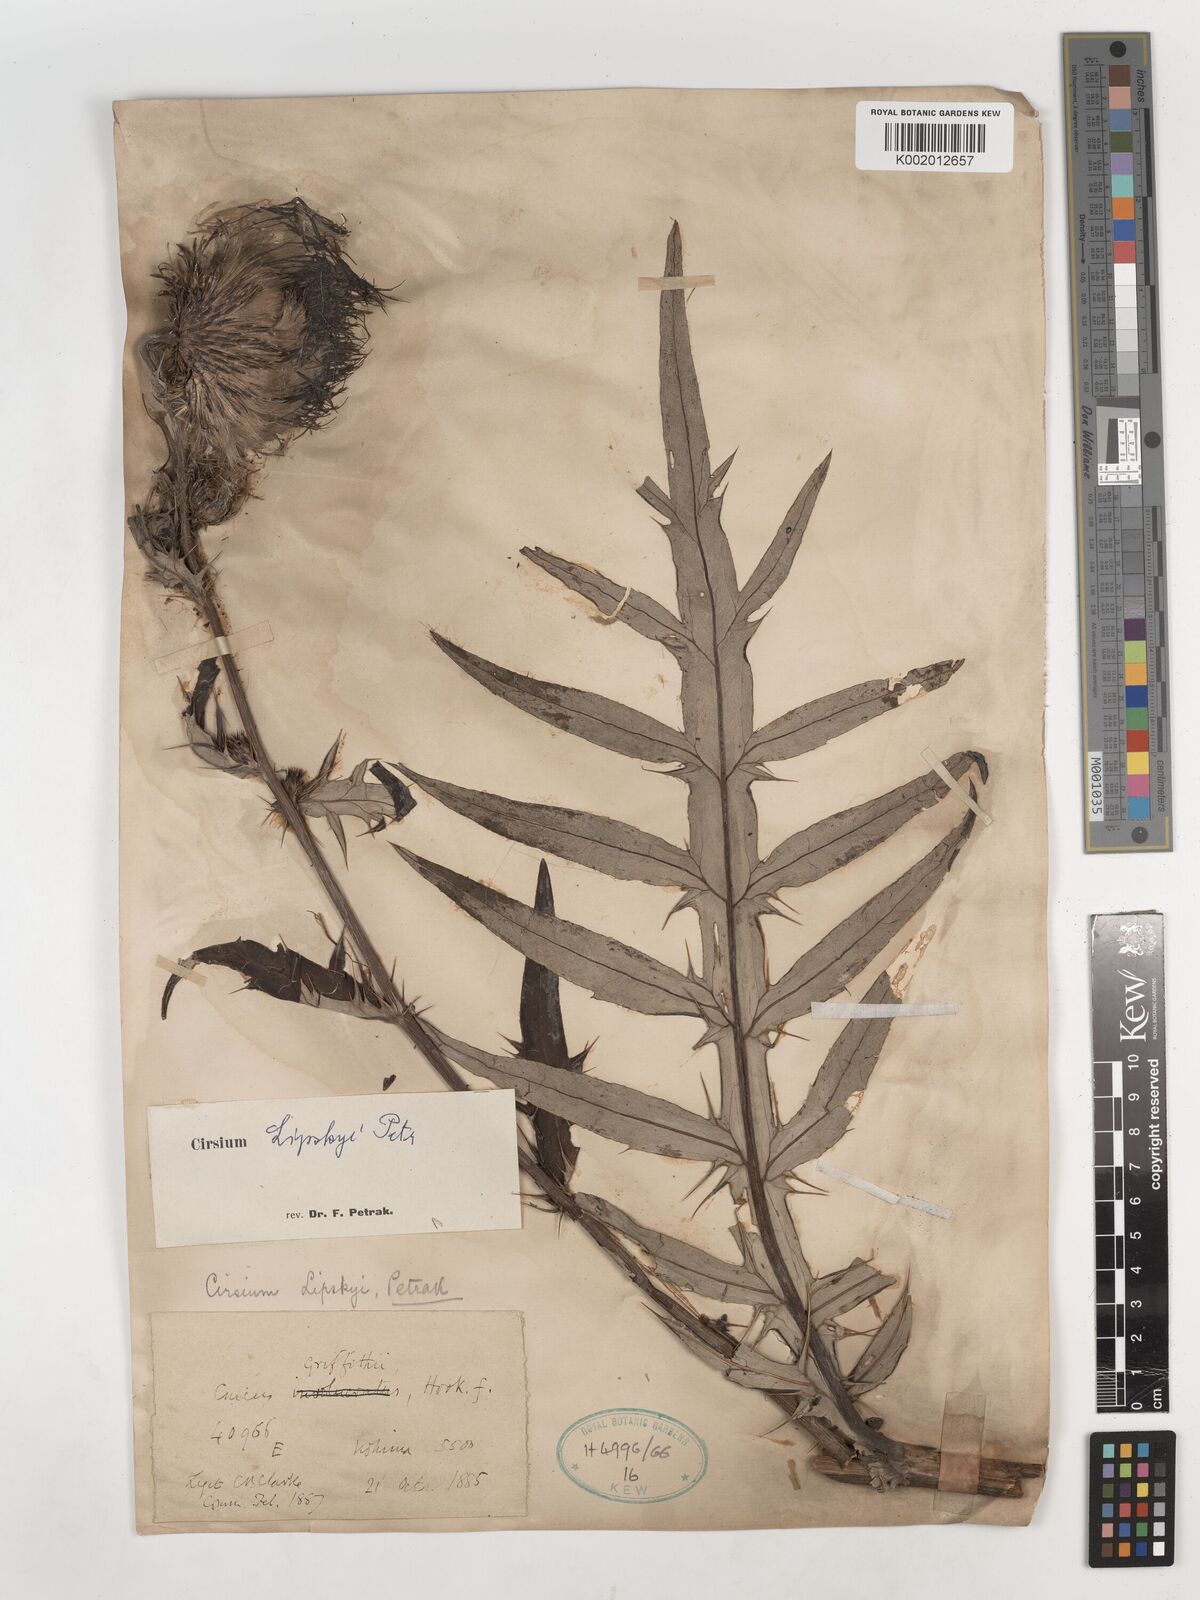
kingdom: Plantae
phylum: Tracheophyta
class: Magnoliopsida
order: Asterales
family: Asteraceae
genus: Cirsium
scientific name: Cirsium lipskyi
